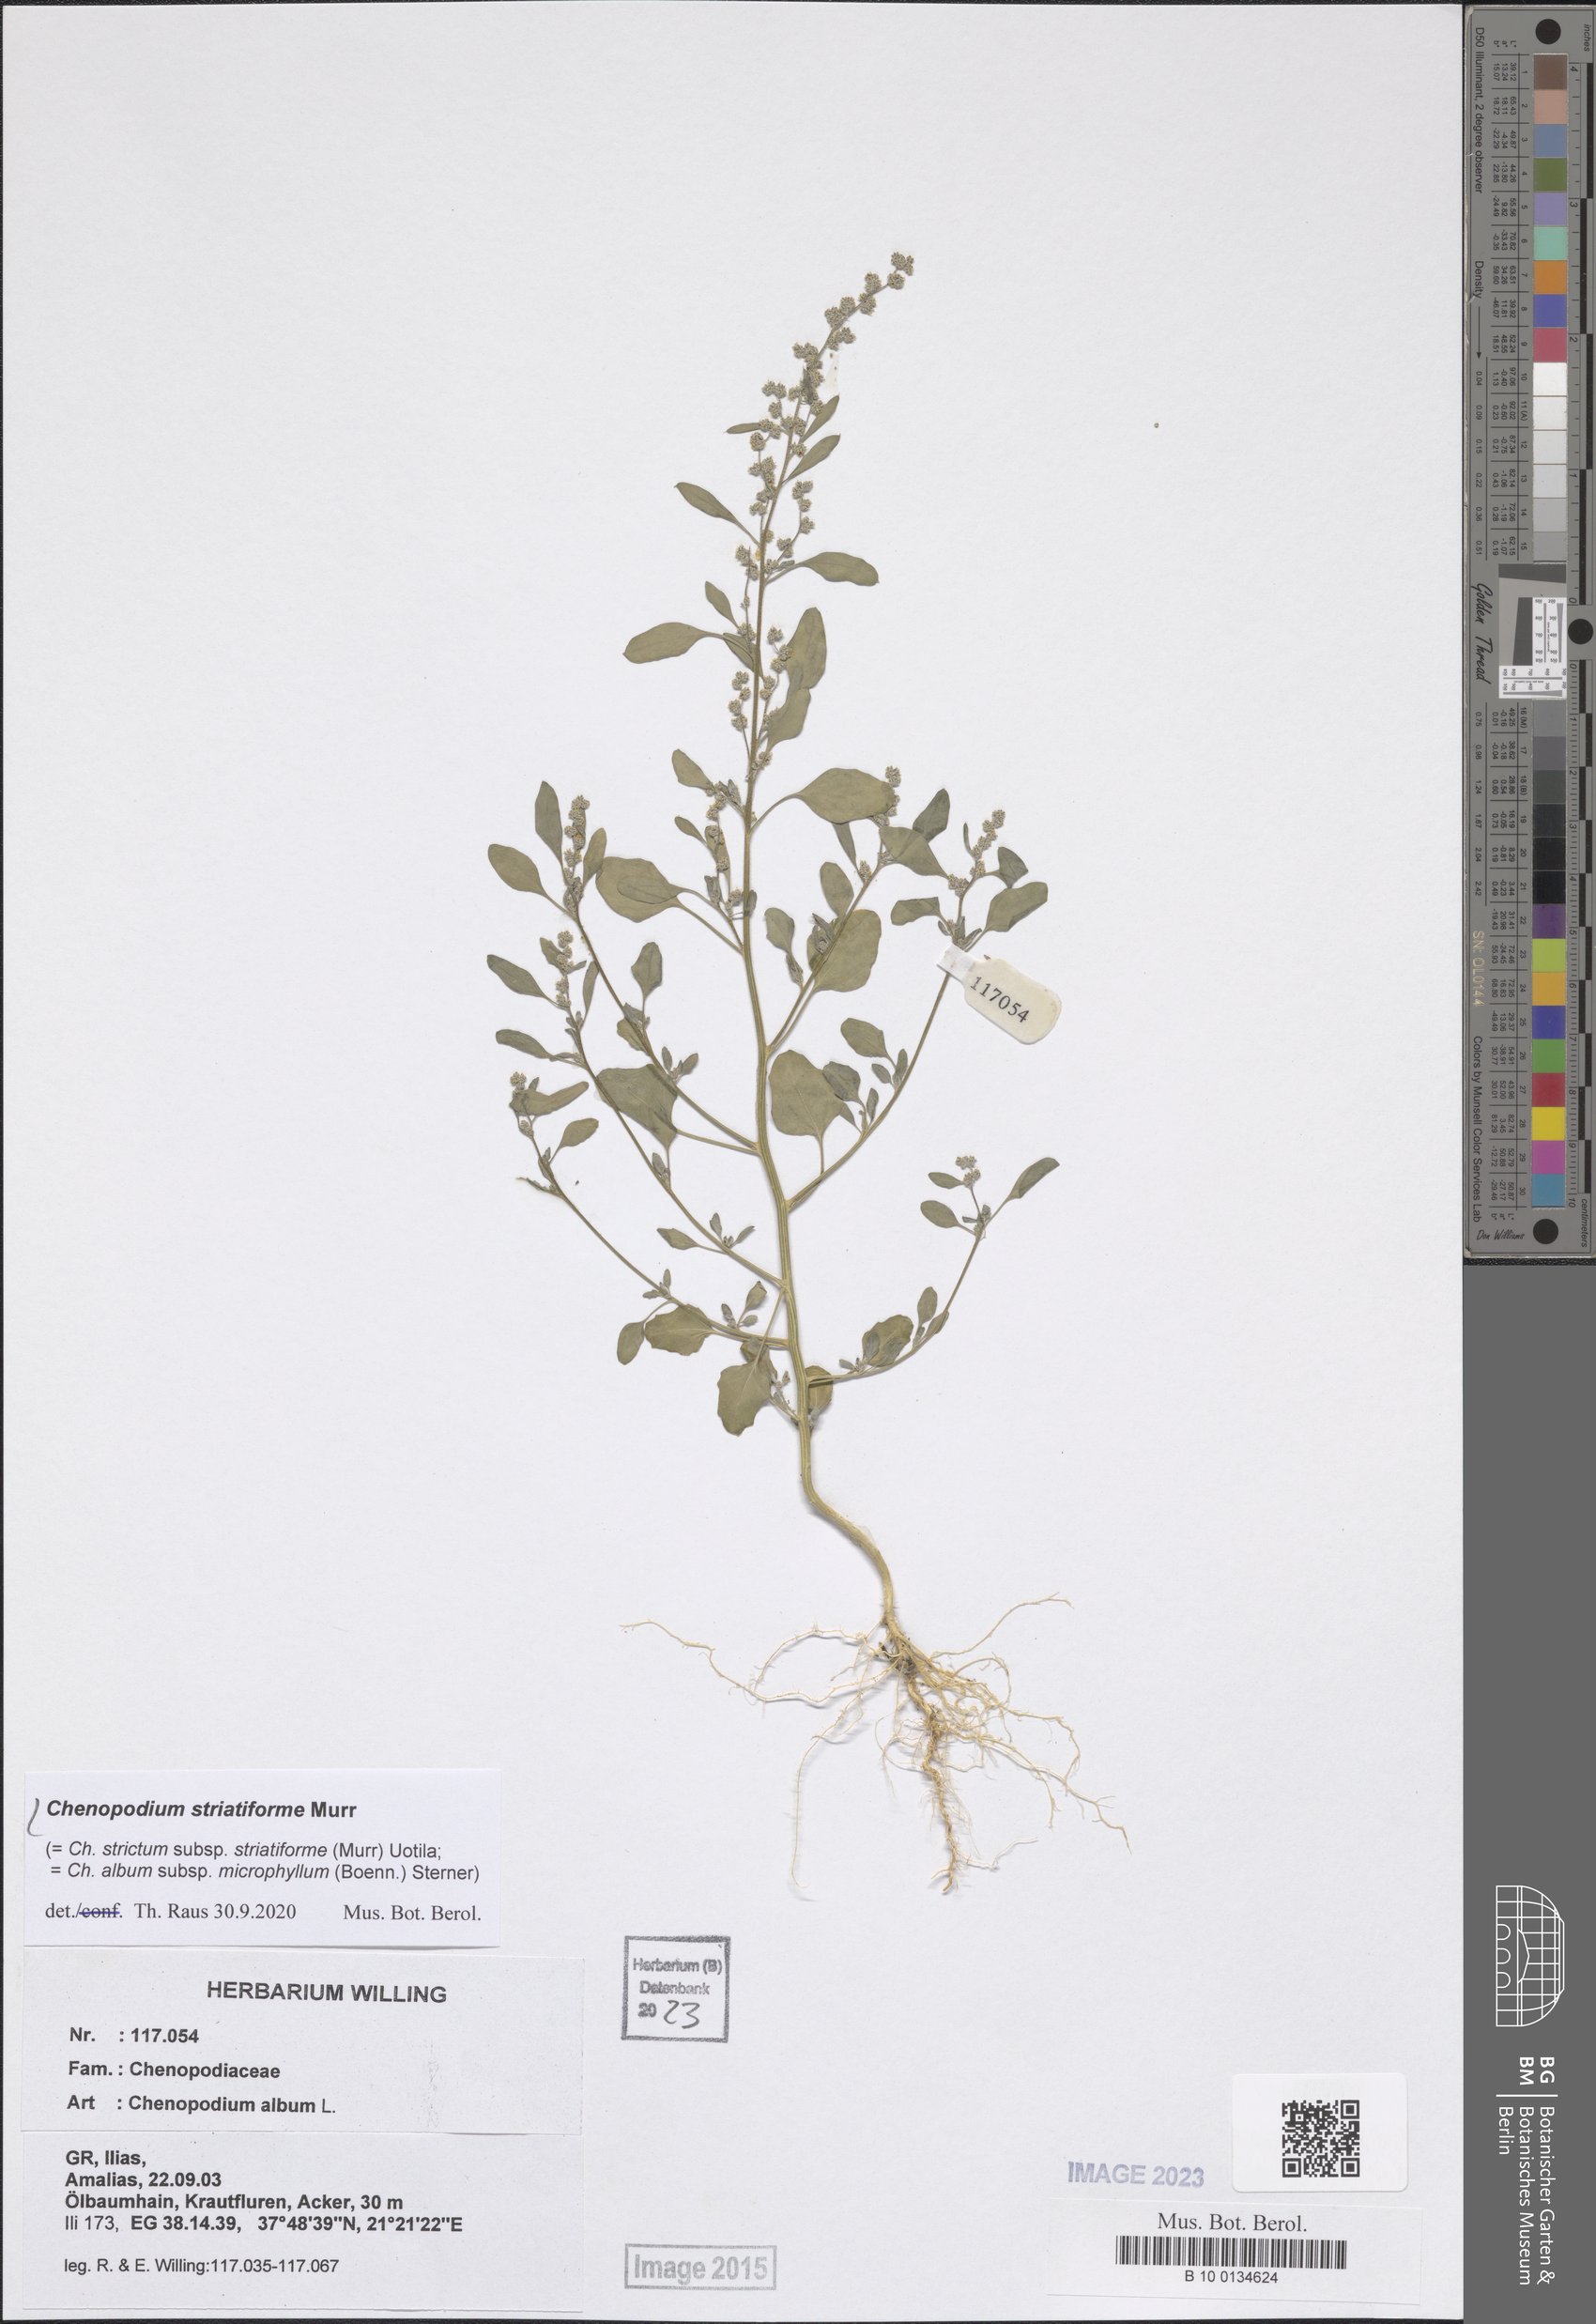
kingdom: Plantae
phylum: Tracheophyta
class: Magnoliopsida
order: Caryophyllales
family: Amaranthaceae
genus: Chenopodium
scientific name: Chenopodium striatiforme
